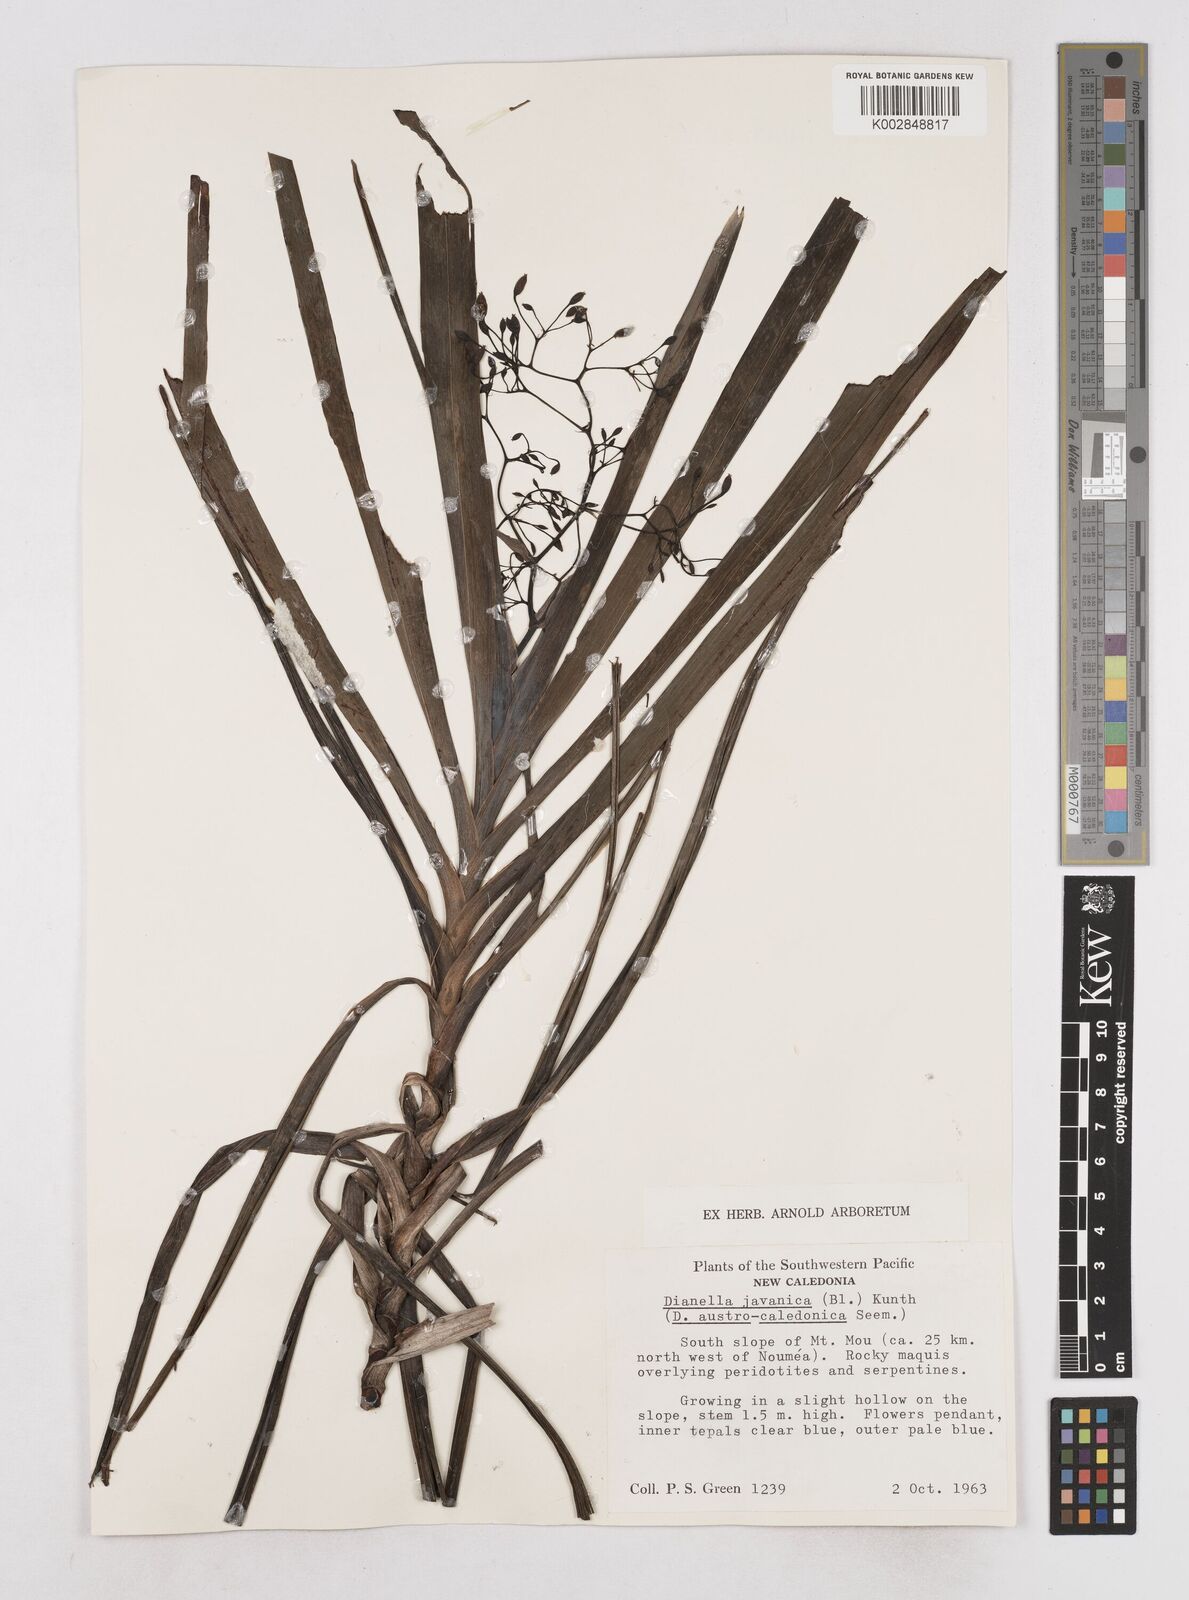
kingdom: Plantae
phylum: Tracheophyta
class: Liliopsida
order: Asparagales
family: Asphodelaceae
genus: Rhuacophila
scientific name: Rhuacophila javanica
